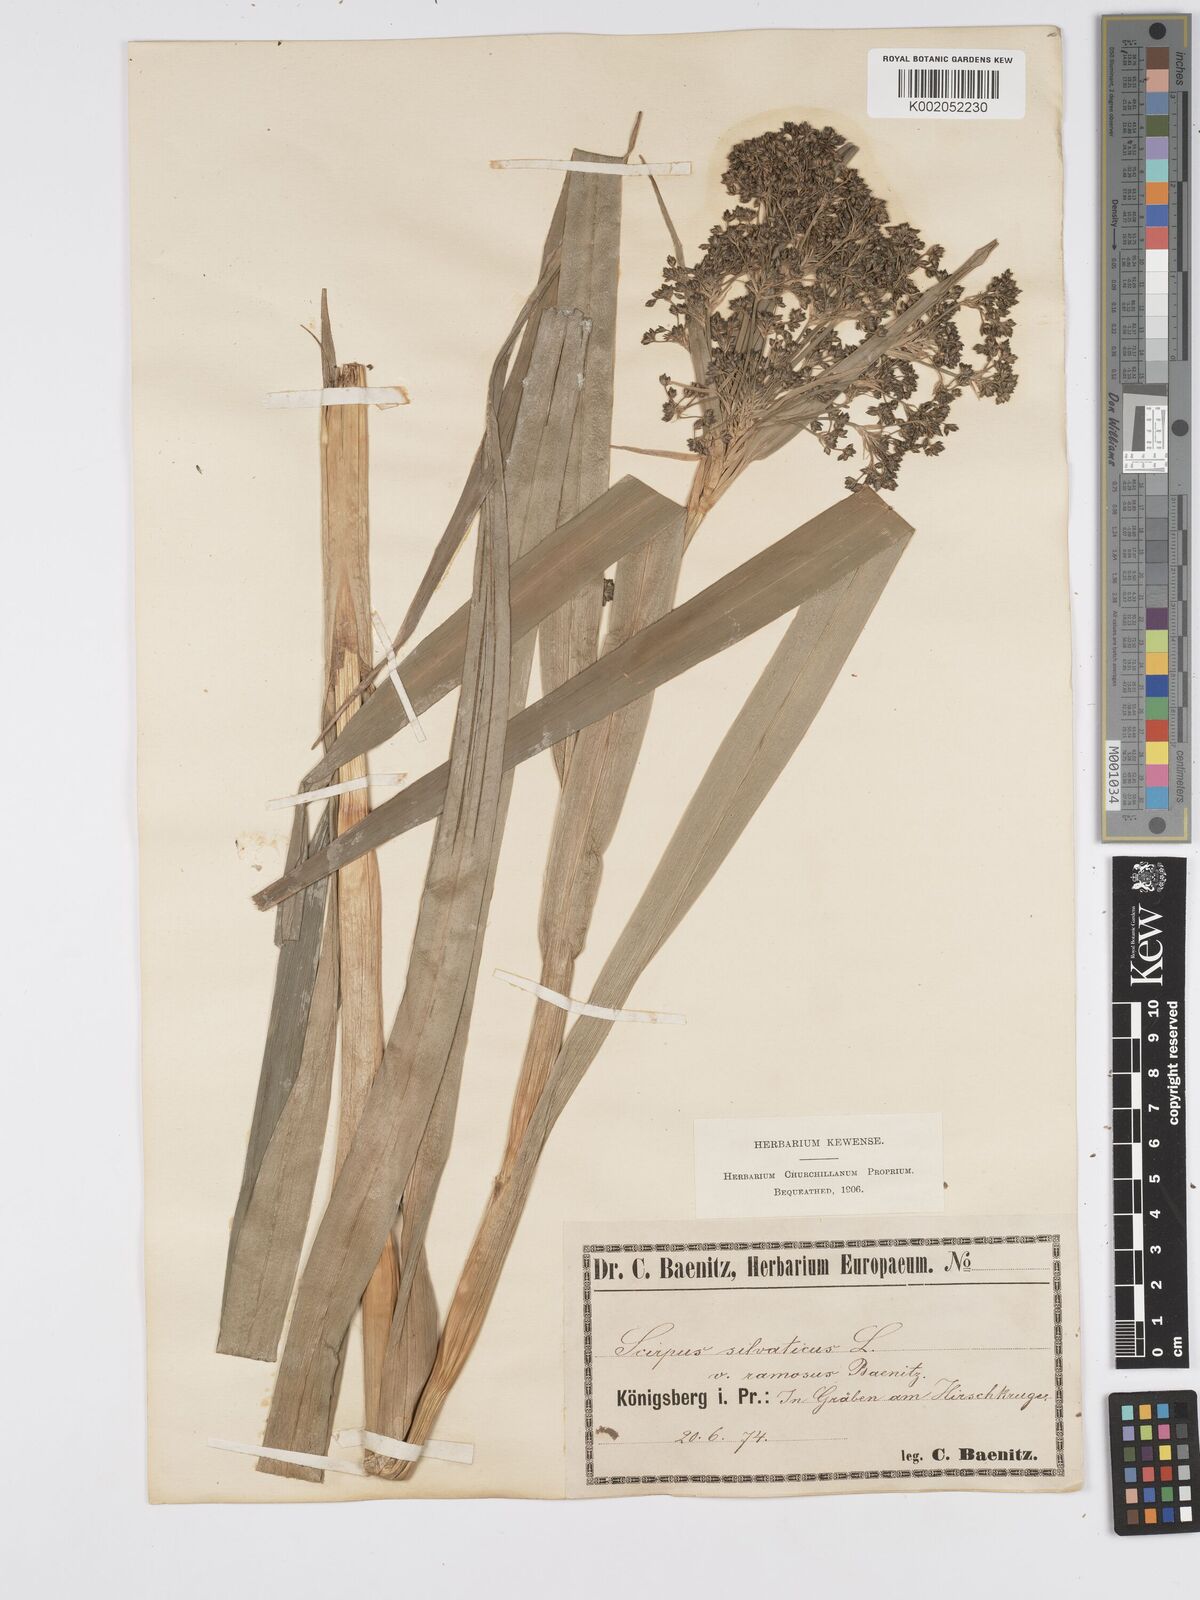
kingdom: Plantae
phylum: Tracheophyta
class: Liliopsida
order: Poales
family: Cyperaceae
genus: Scirpus
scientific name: Scirpus sylvaticus
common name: Wood club-rush
